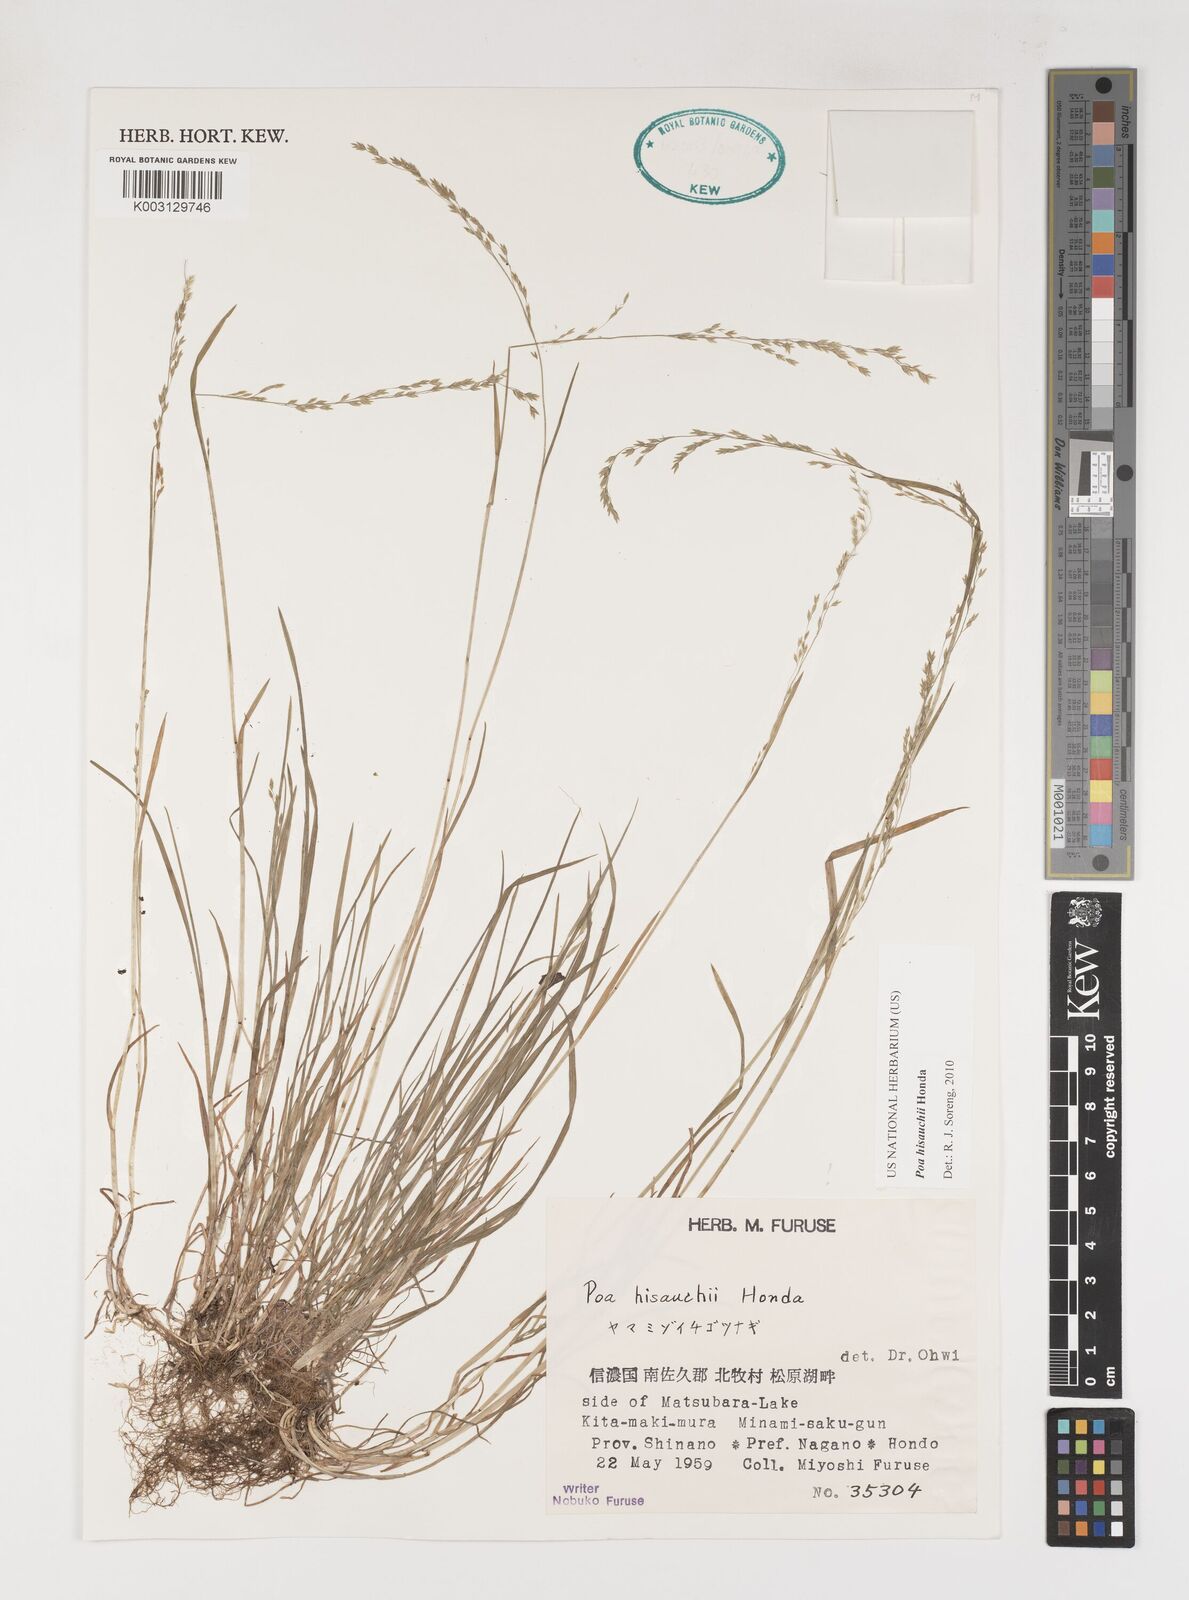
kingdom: Plantae
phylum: Tracheophyta
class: Liliopsida
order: Poales
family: Poaceae
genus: Poa
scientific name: Poa hisauchii
